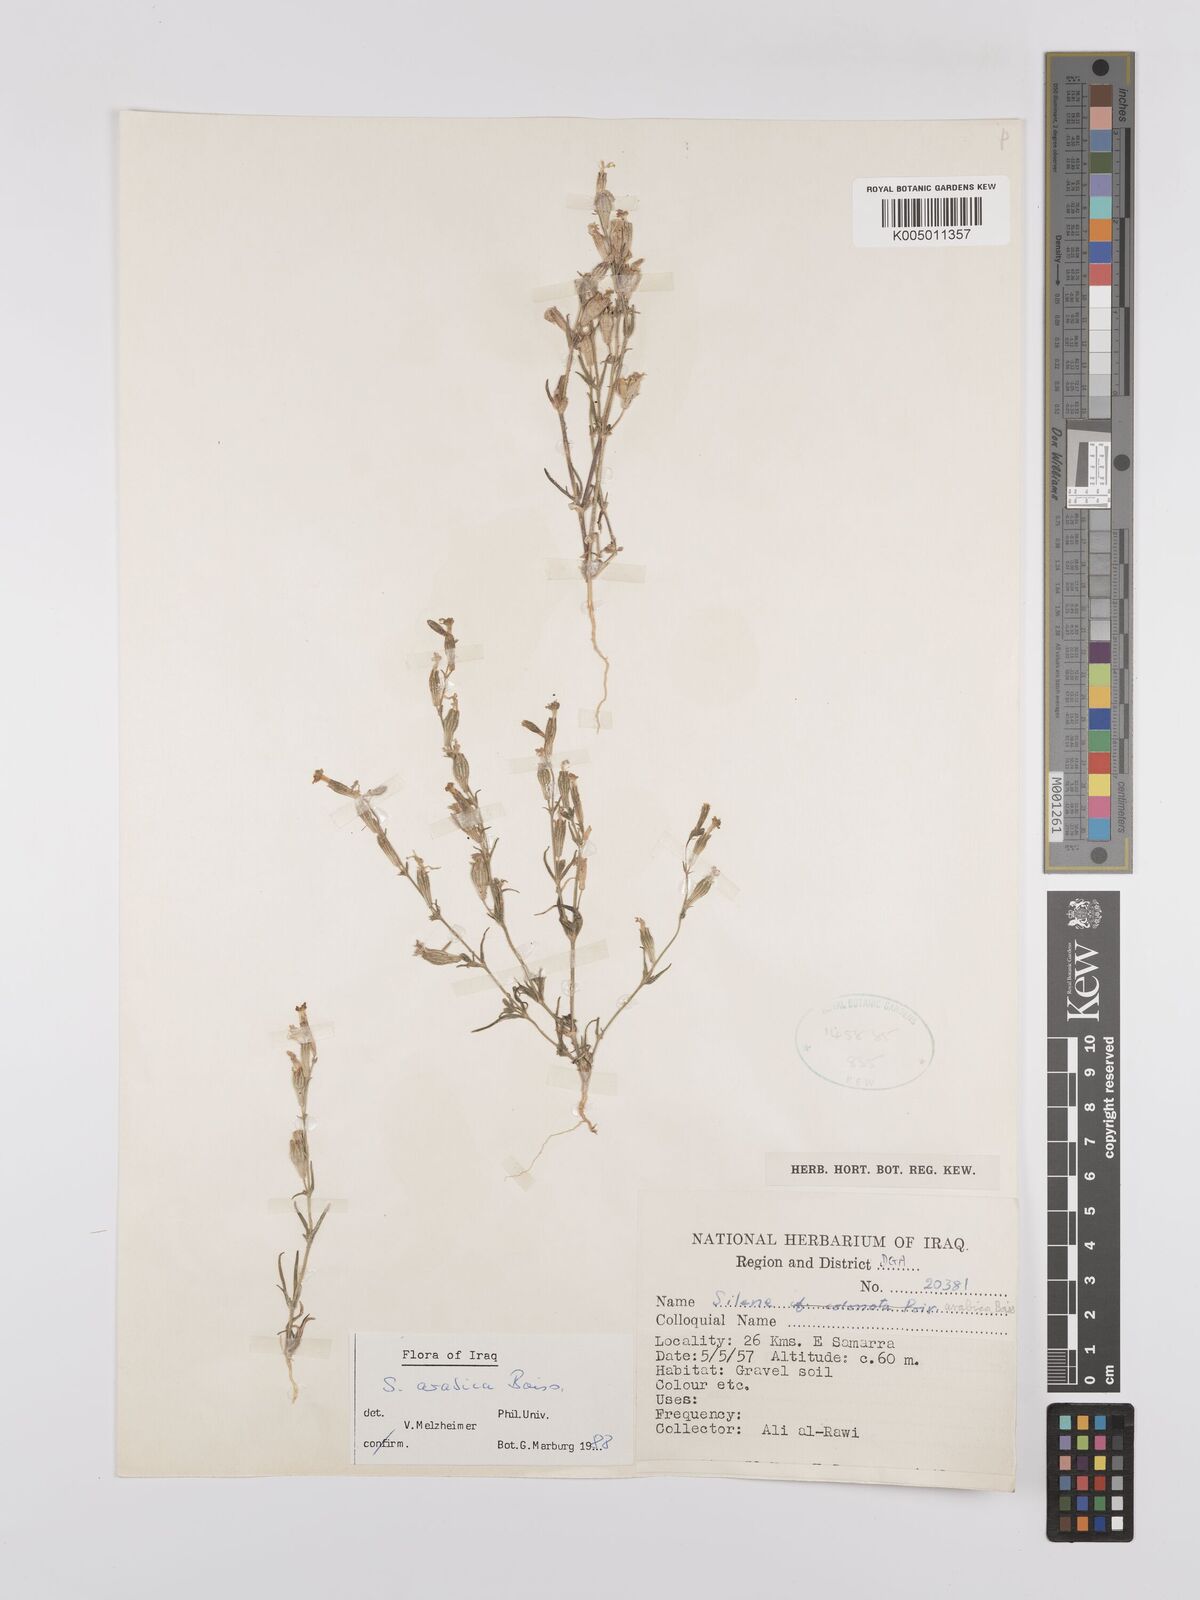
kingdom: Plantae
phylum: Tracheophyta
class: Magnoliopsida
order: Caryophyllales
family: Caryophyllaceae
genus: Silene
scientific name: Silene arabica
